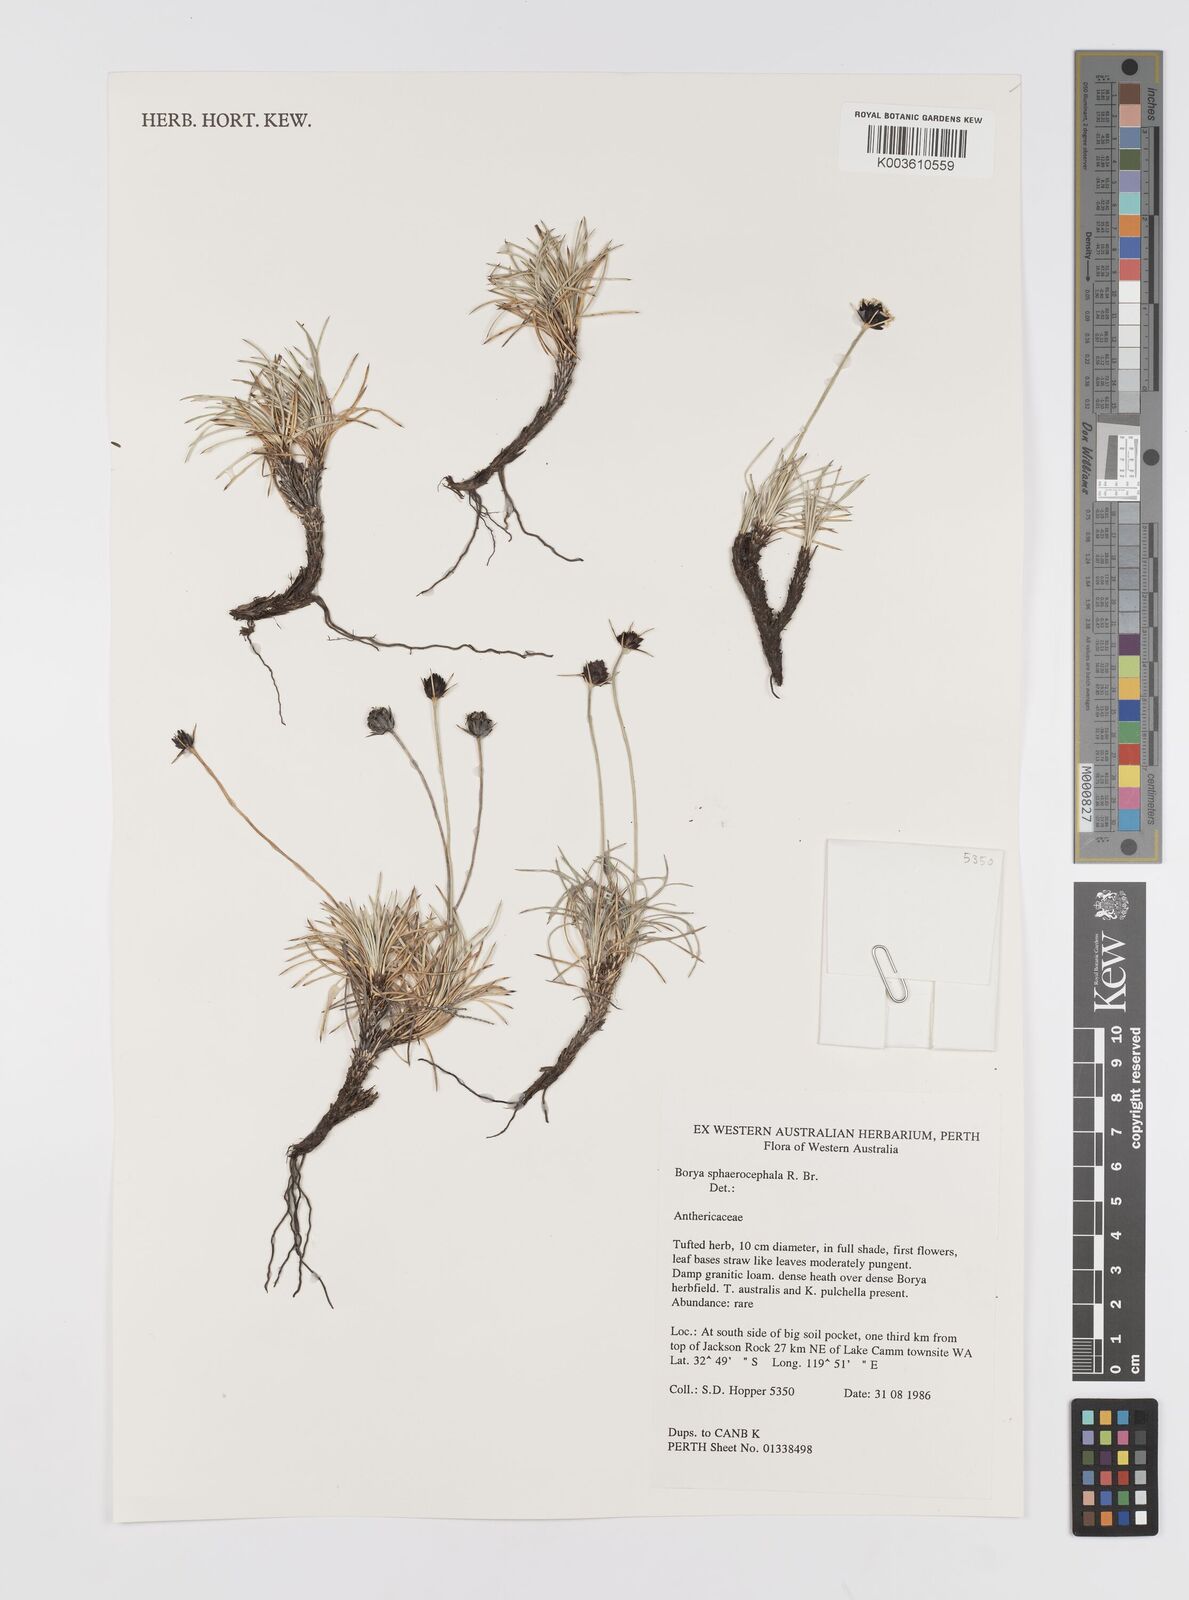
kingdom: Plantae
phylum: Tracheophyta
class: Liliopsida
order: Asparagales
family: Boryaceae
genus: Borya
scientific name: Borya sphaerocephala
